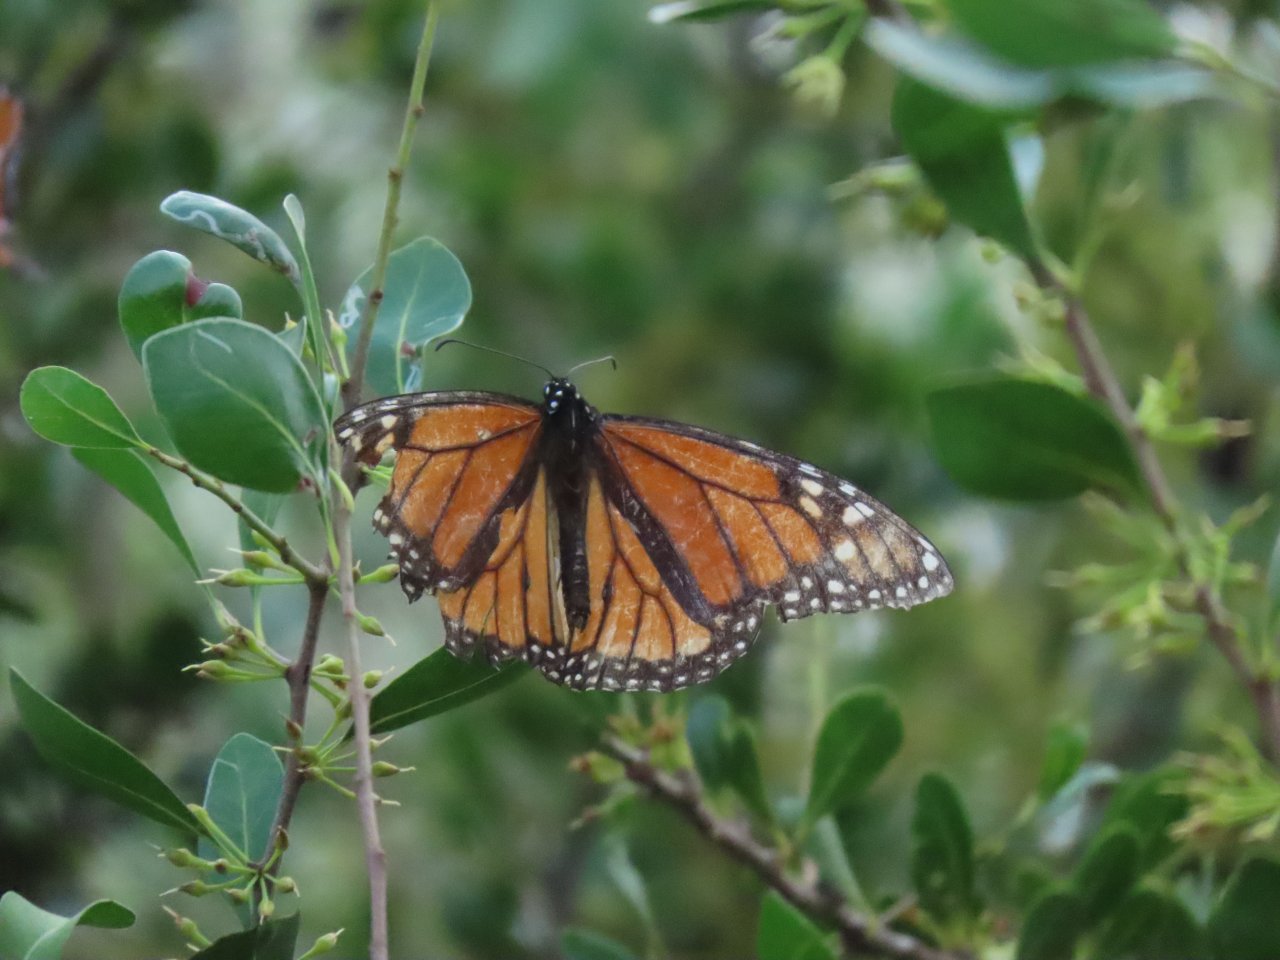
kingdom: Animalia
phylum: Arthropoda
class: Insecta
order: Lepidoptera
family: Nymphalidae
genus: Danaus
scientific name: Danaus plexippus
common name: Monarch
